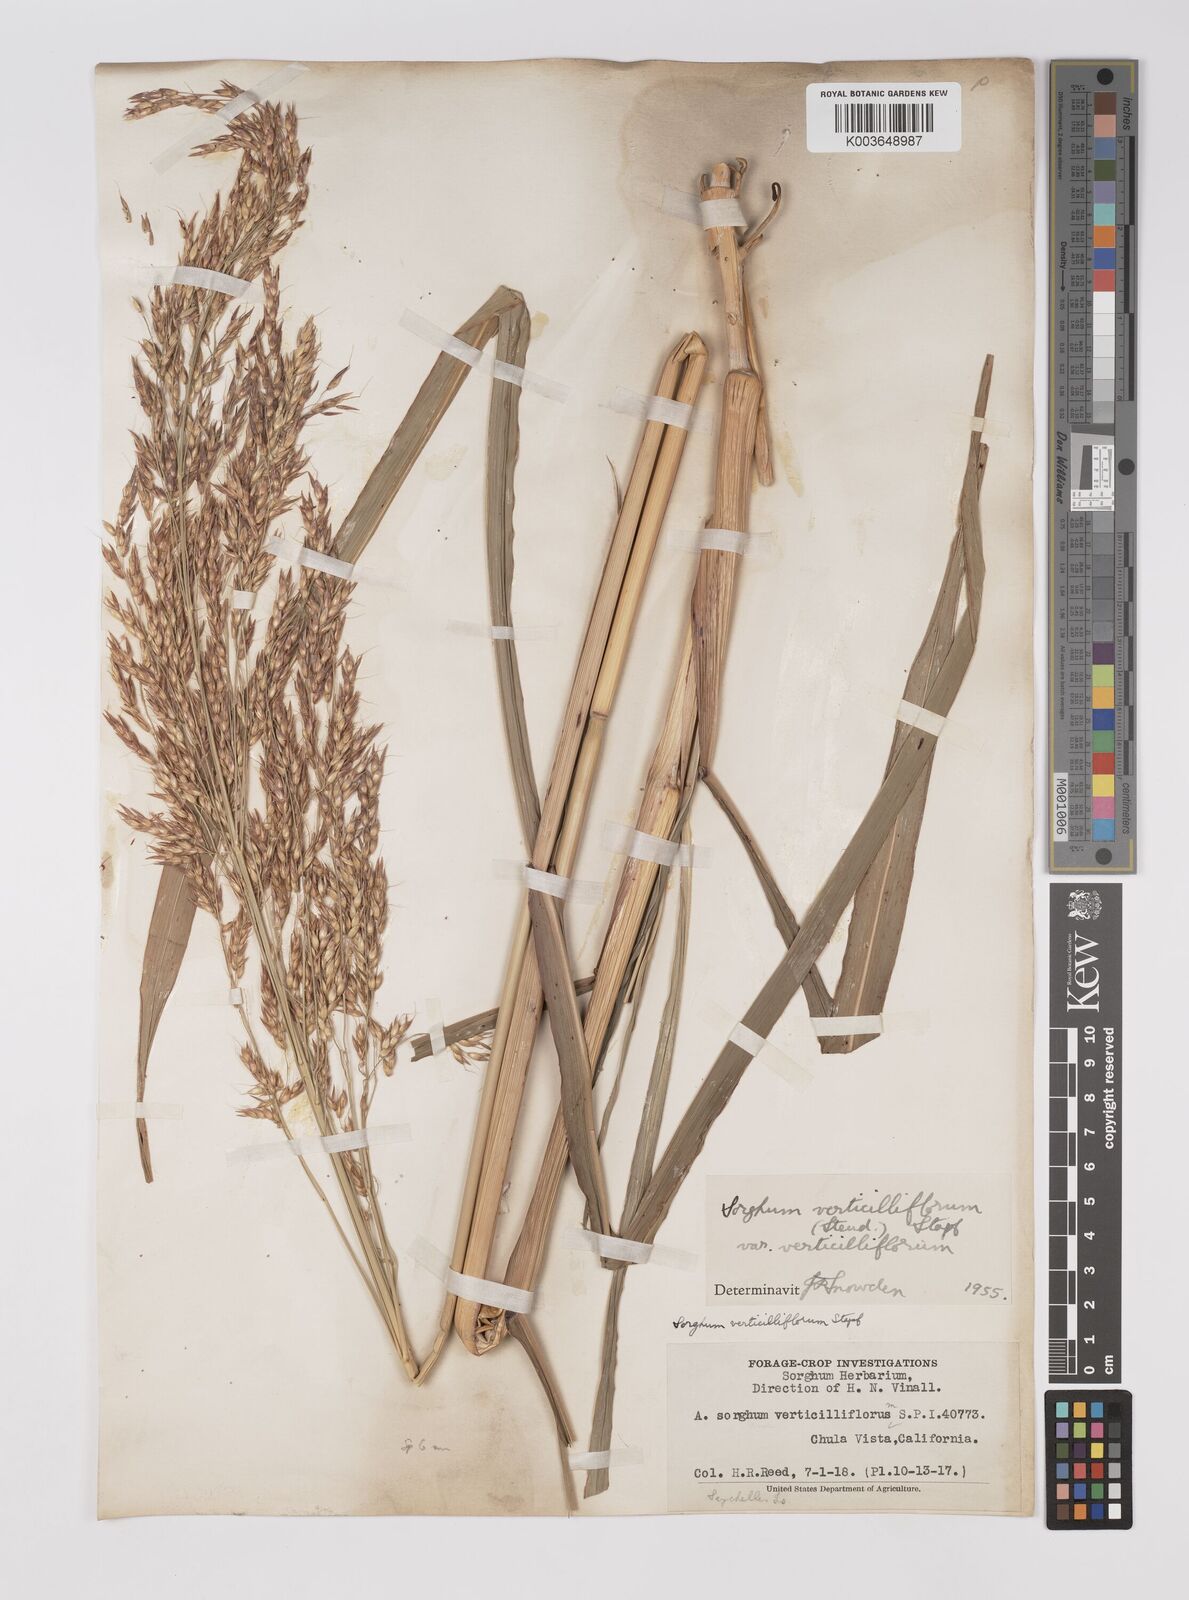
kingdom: Plantae
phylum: Tracheophyta
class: Liliopsida
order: Poales
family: Poaceae
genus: Sorghum
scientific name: Sorghum arundinaceum
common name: Sorghum
